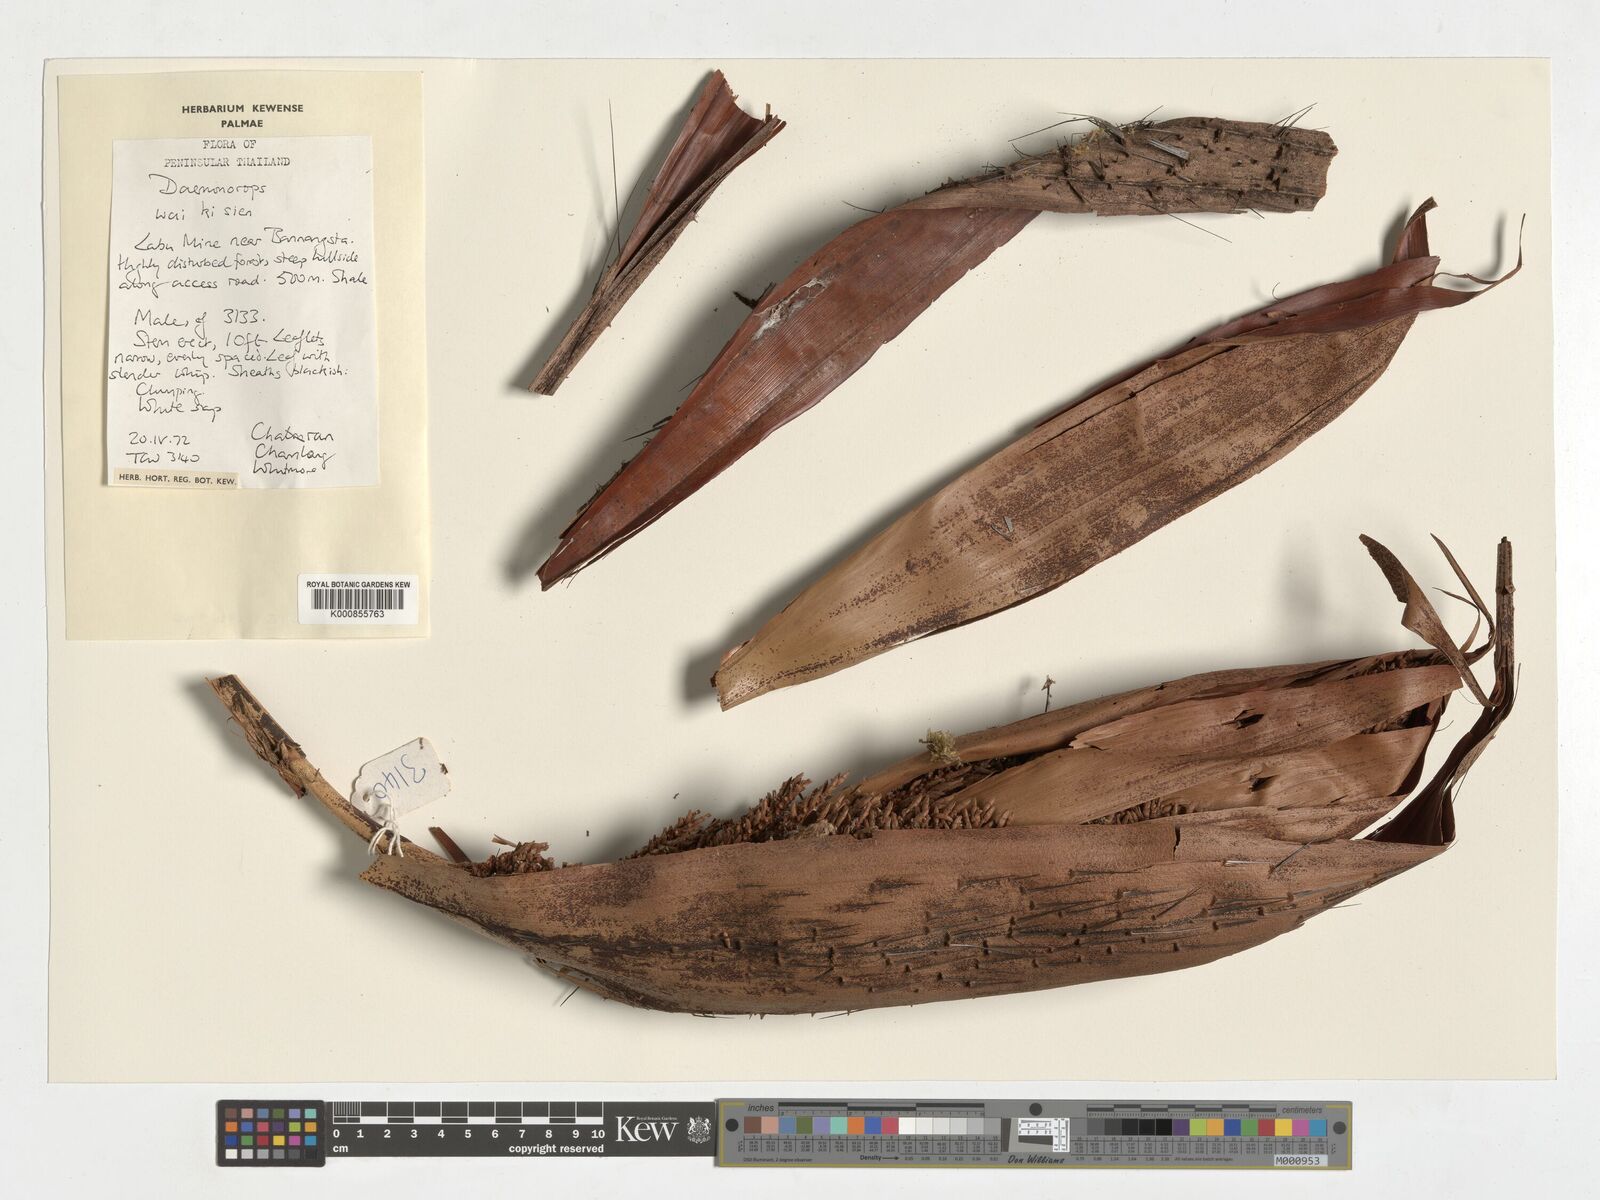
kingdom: Plantae
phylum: Tracheophyta
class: Liliopsida
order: Arecales
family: Arecaceae
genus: Calamus
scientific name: Calamus periacanthus
